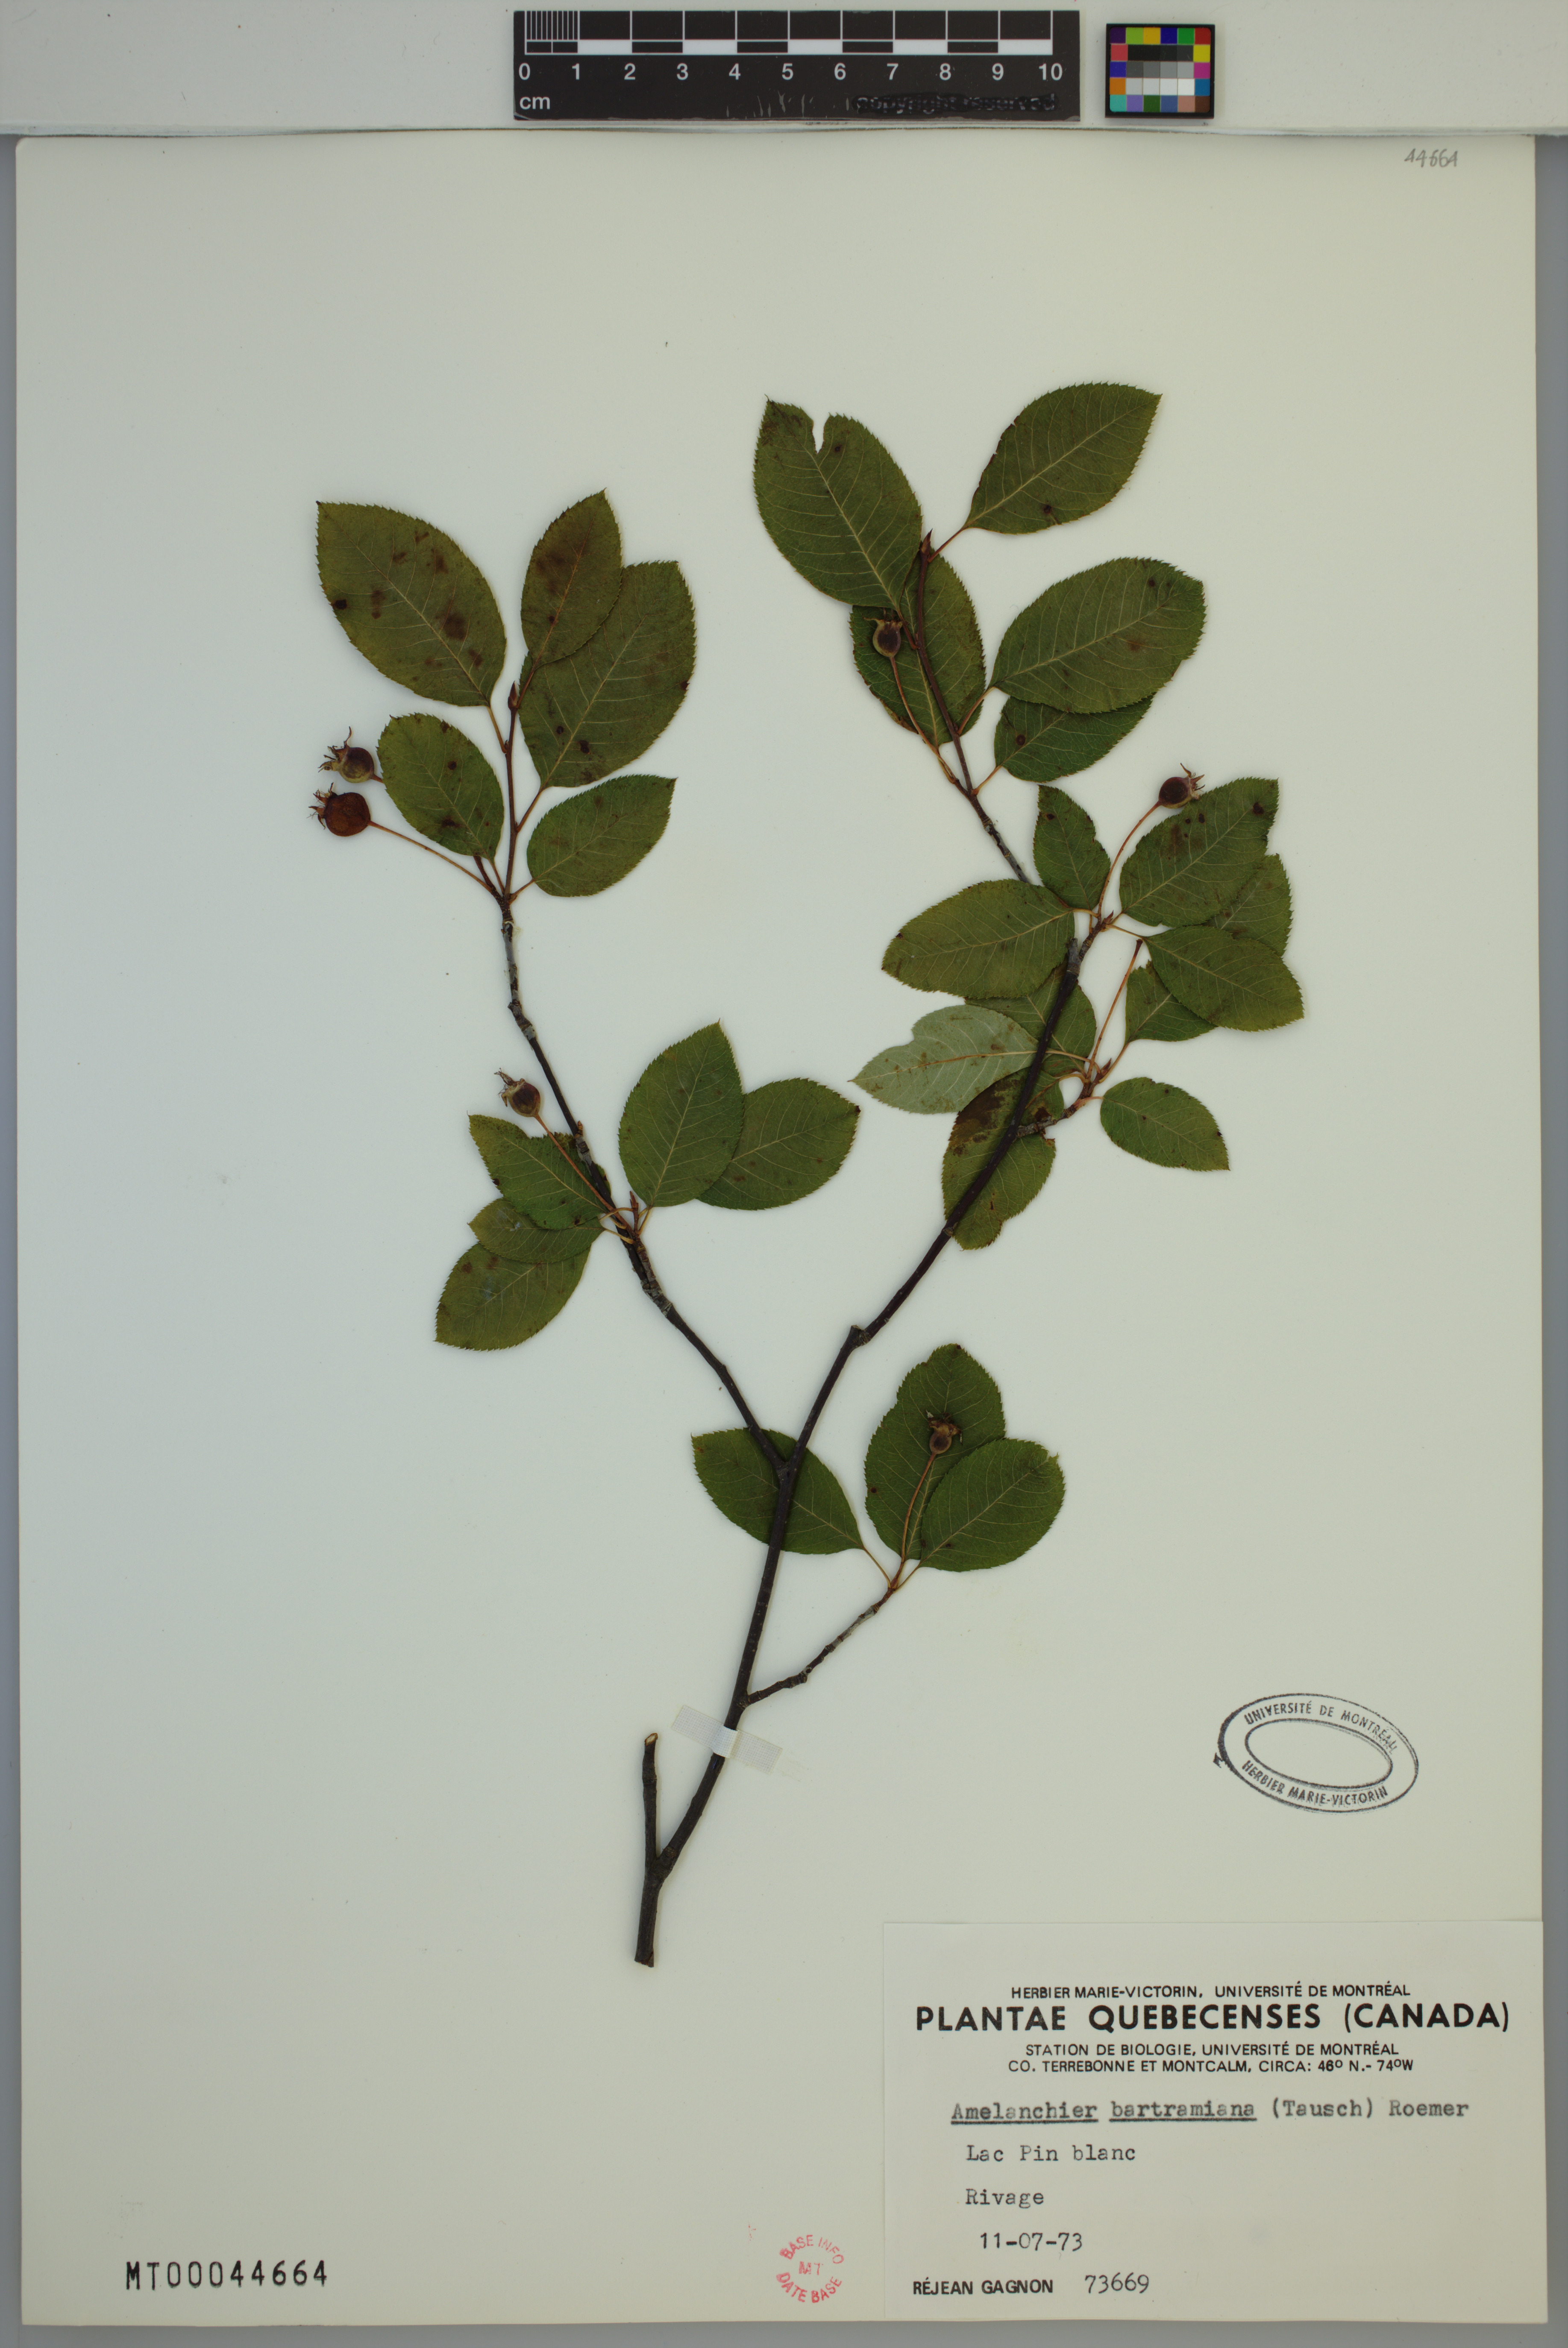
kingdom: Plantae
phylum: Tracheophyta
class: Magnoliopsida
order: Rosales
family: Rosaceae
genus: Amelanchier
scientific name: Amelanchier bartramiana
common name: Mountain serviceberry
